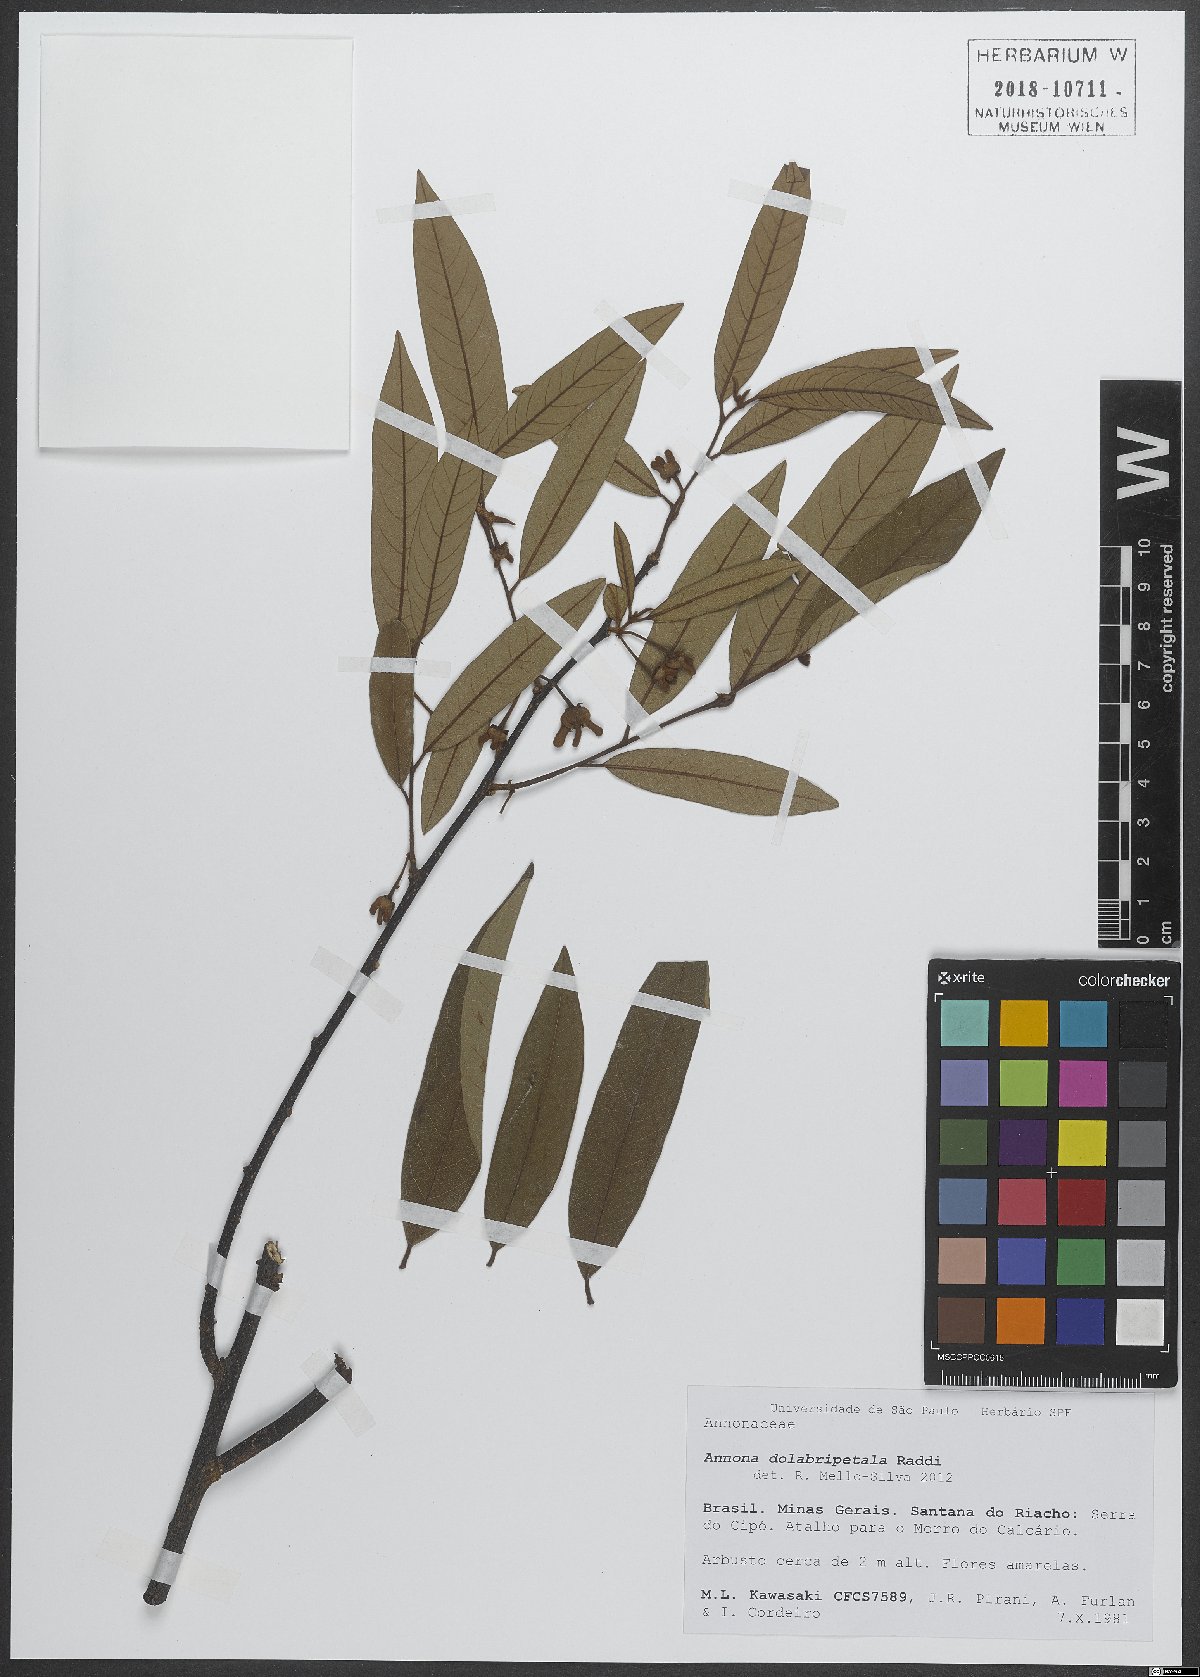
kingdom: Plantae
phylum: Tracheophyta
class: Magnoliopsida
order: Magnoliales
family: Annonaceae
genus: Annona
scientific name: Annona dolabripetala
